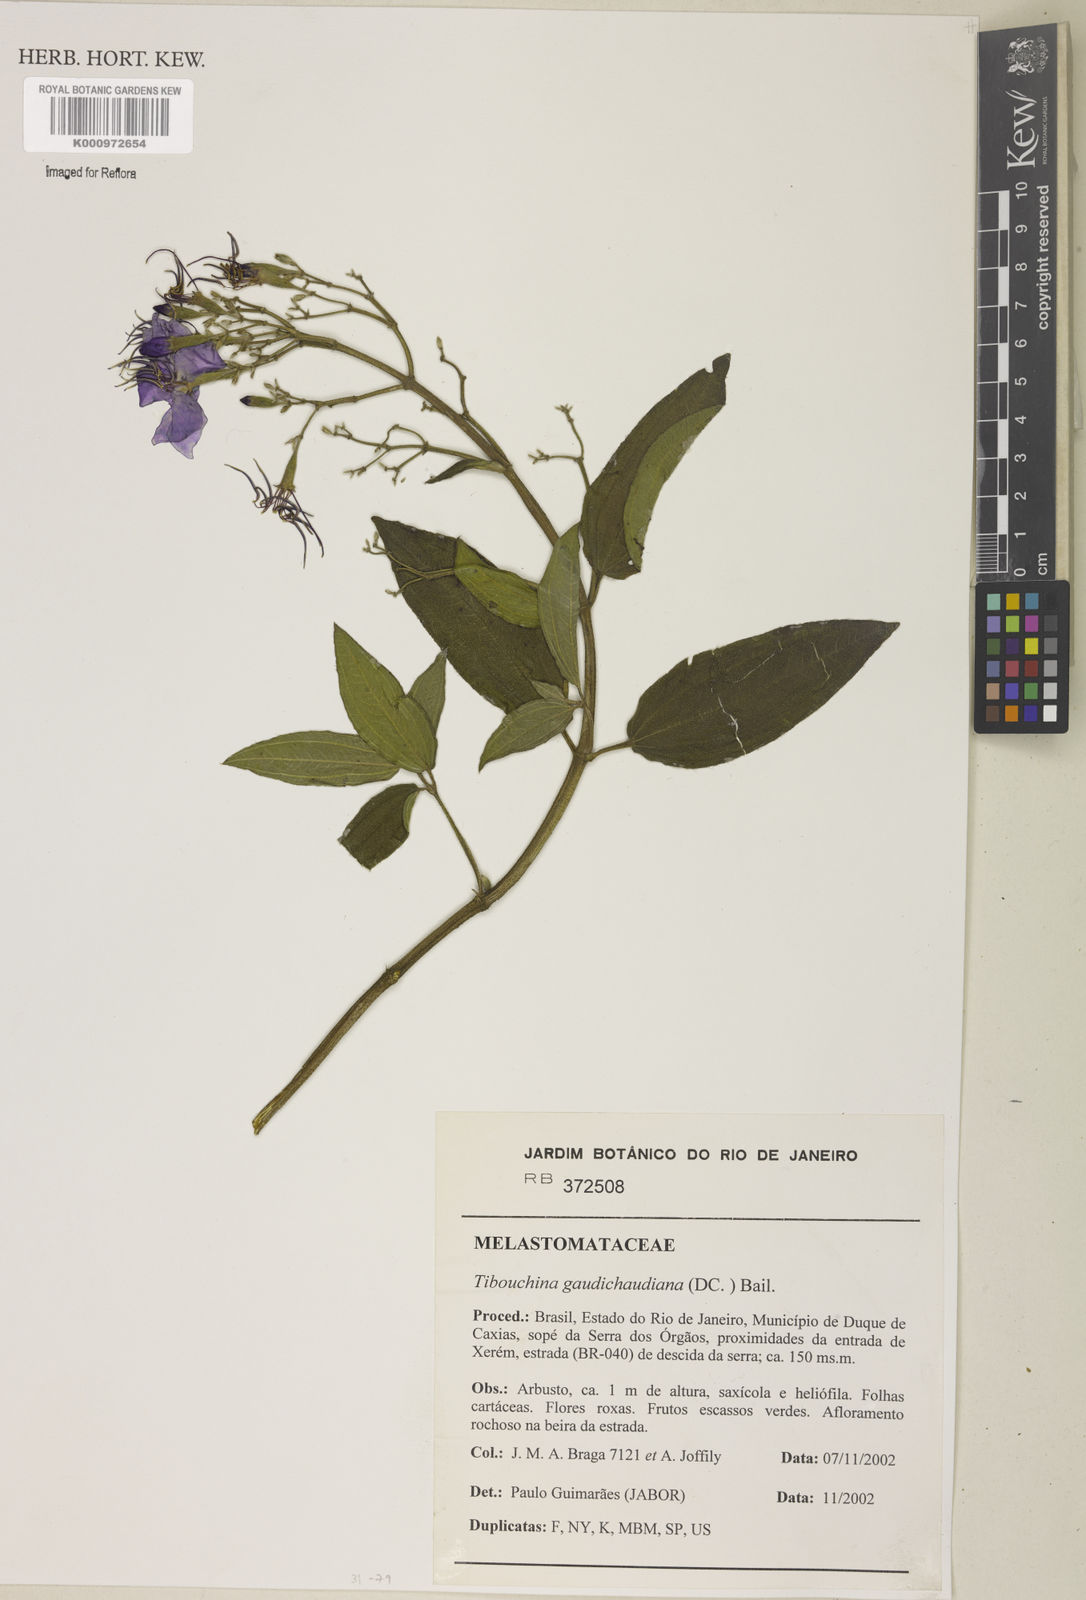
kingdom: Plantae
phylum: Tracheophyta
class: Magnoliopsida
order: Myrtales
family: Melastomataceae
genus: Pleroma
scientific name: Pleroma gaudichaudianum
